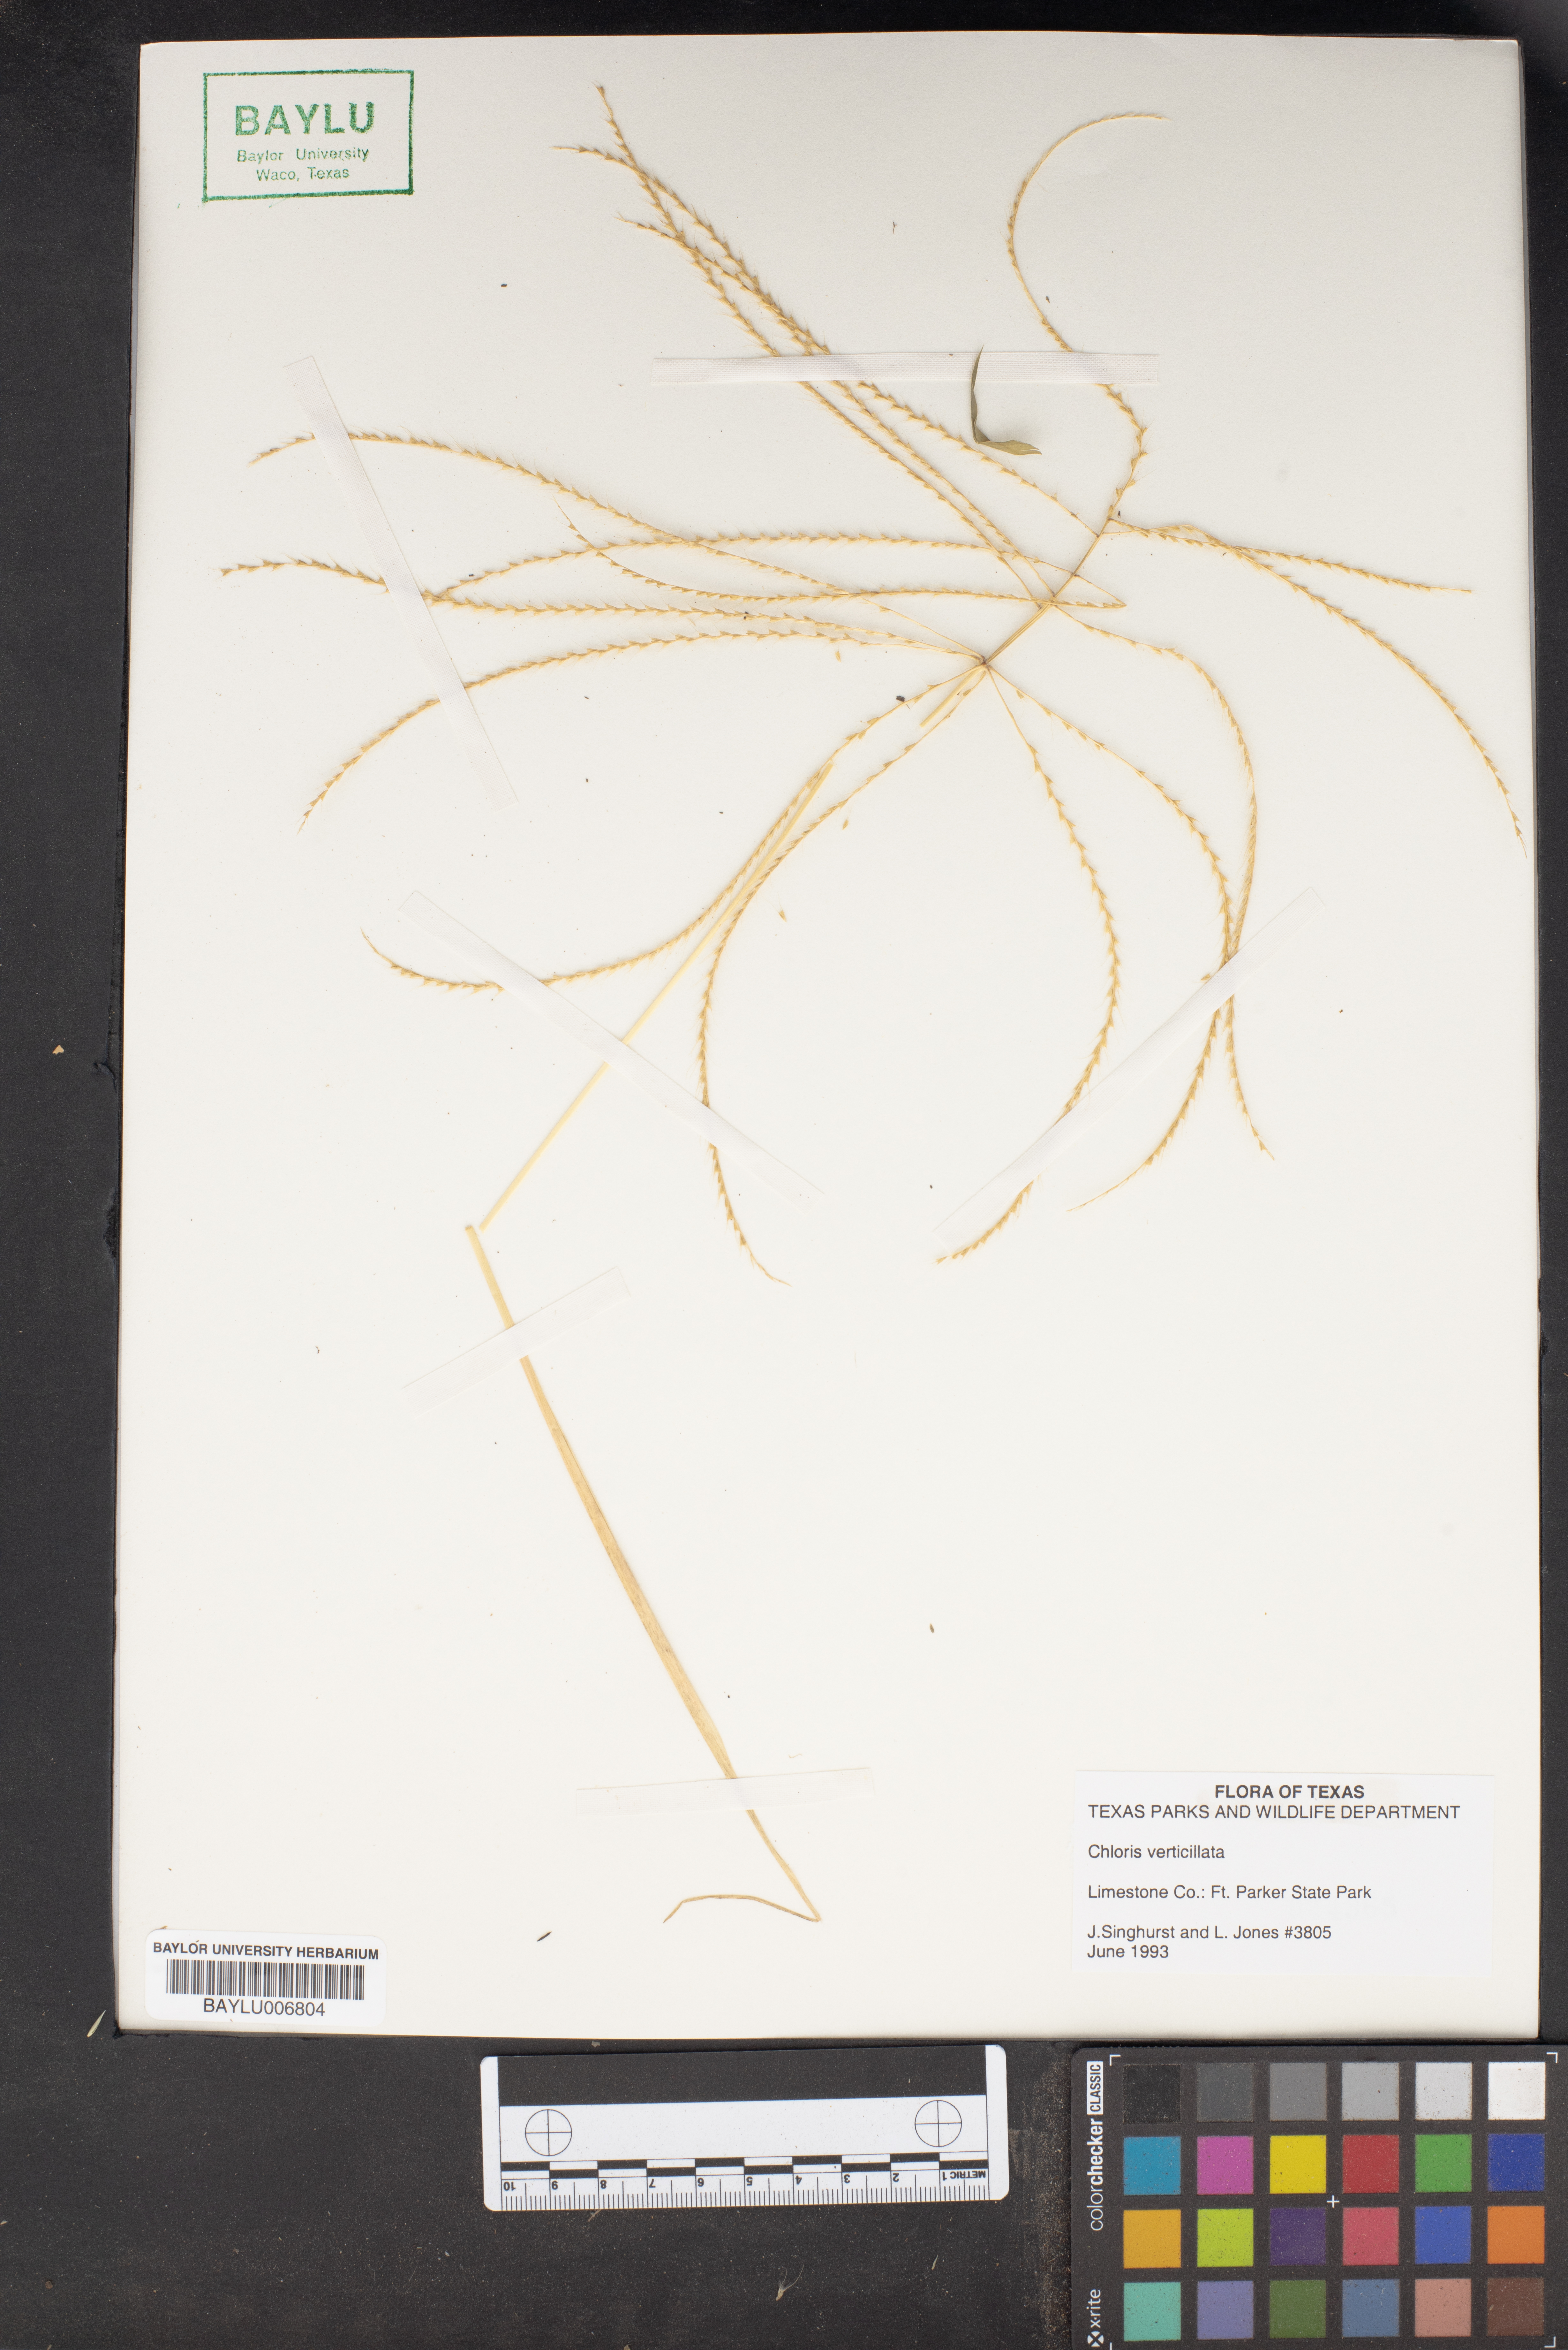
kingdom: Plantae
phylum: Tracheophyta
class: Liliopsida
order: Poales
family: Poaceae
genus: Chloris
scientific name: Chloris verticillata
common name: Tumble windmill grass
